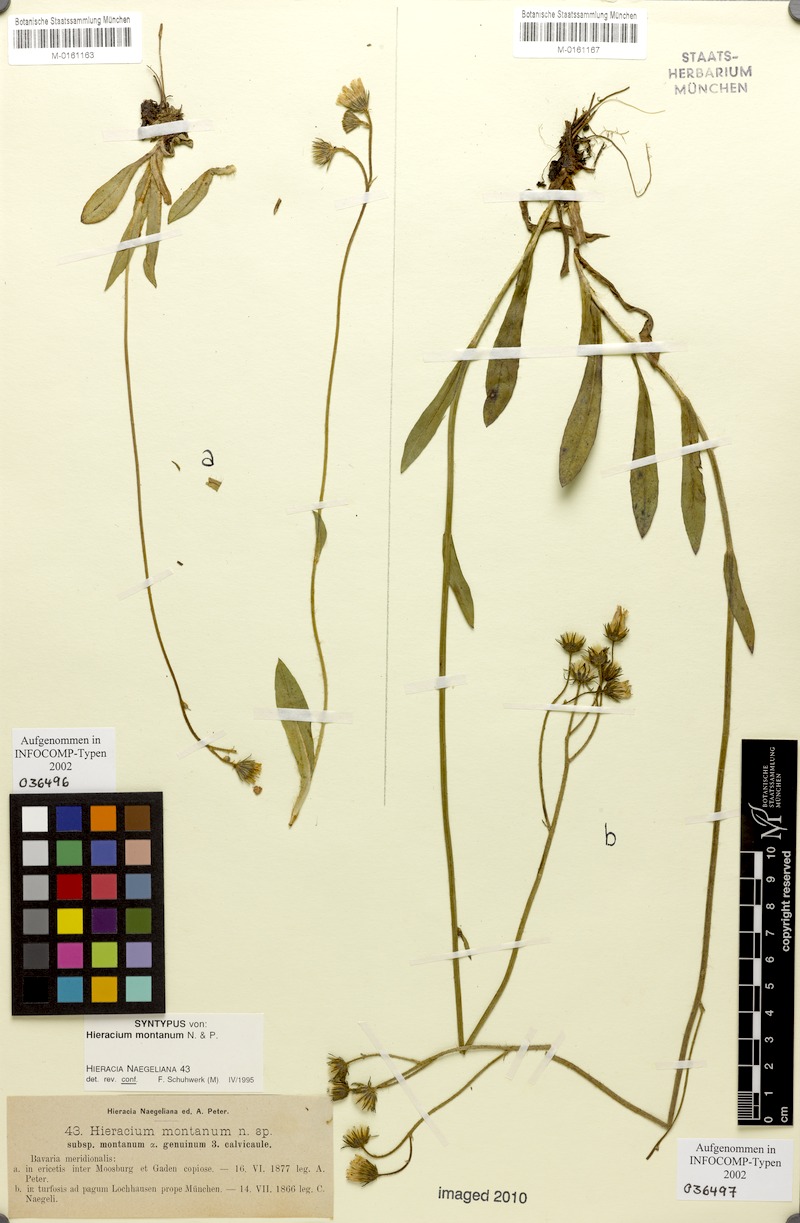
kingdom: Plantae
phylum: Tracheophyta
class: Magnoliopsida
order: Asterales
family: Asteraceae
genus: Pilosella
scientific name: Pilosella chomatophila
